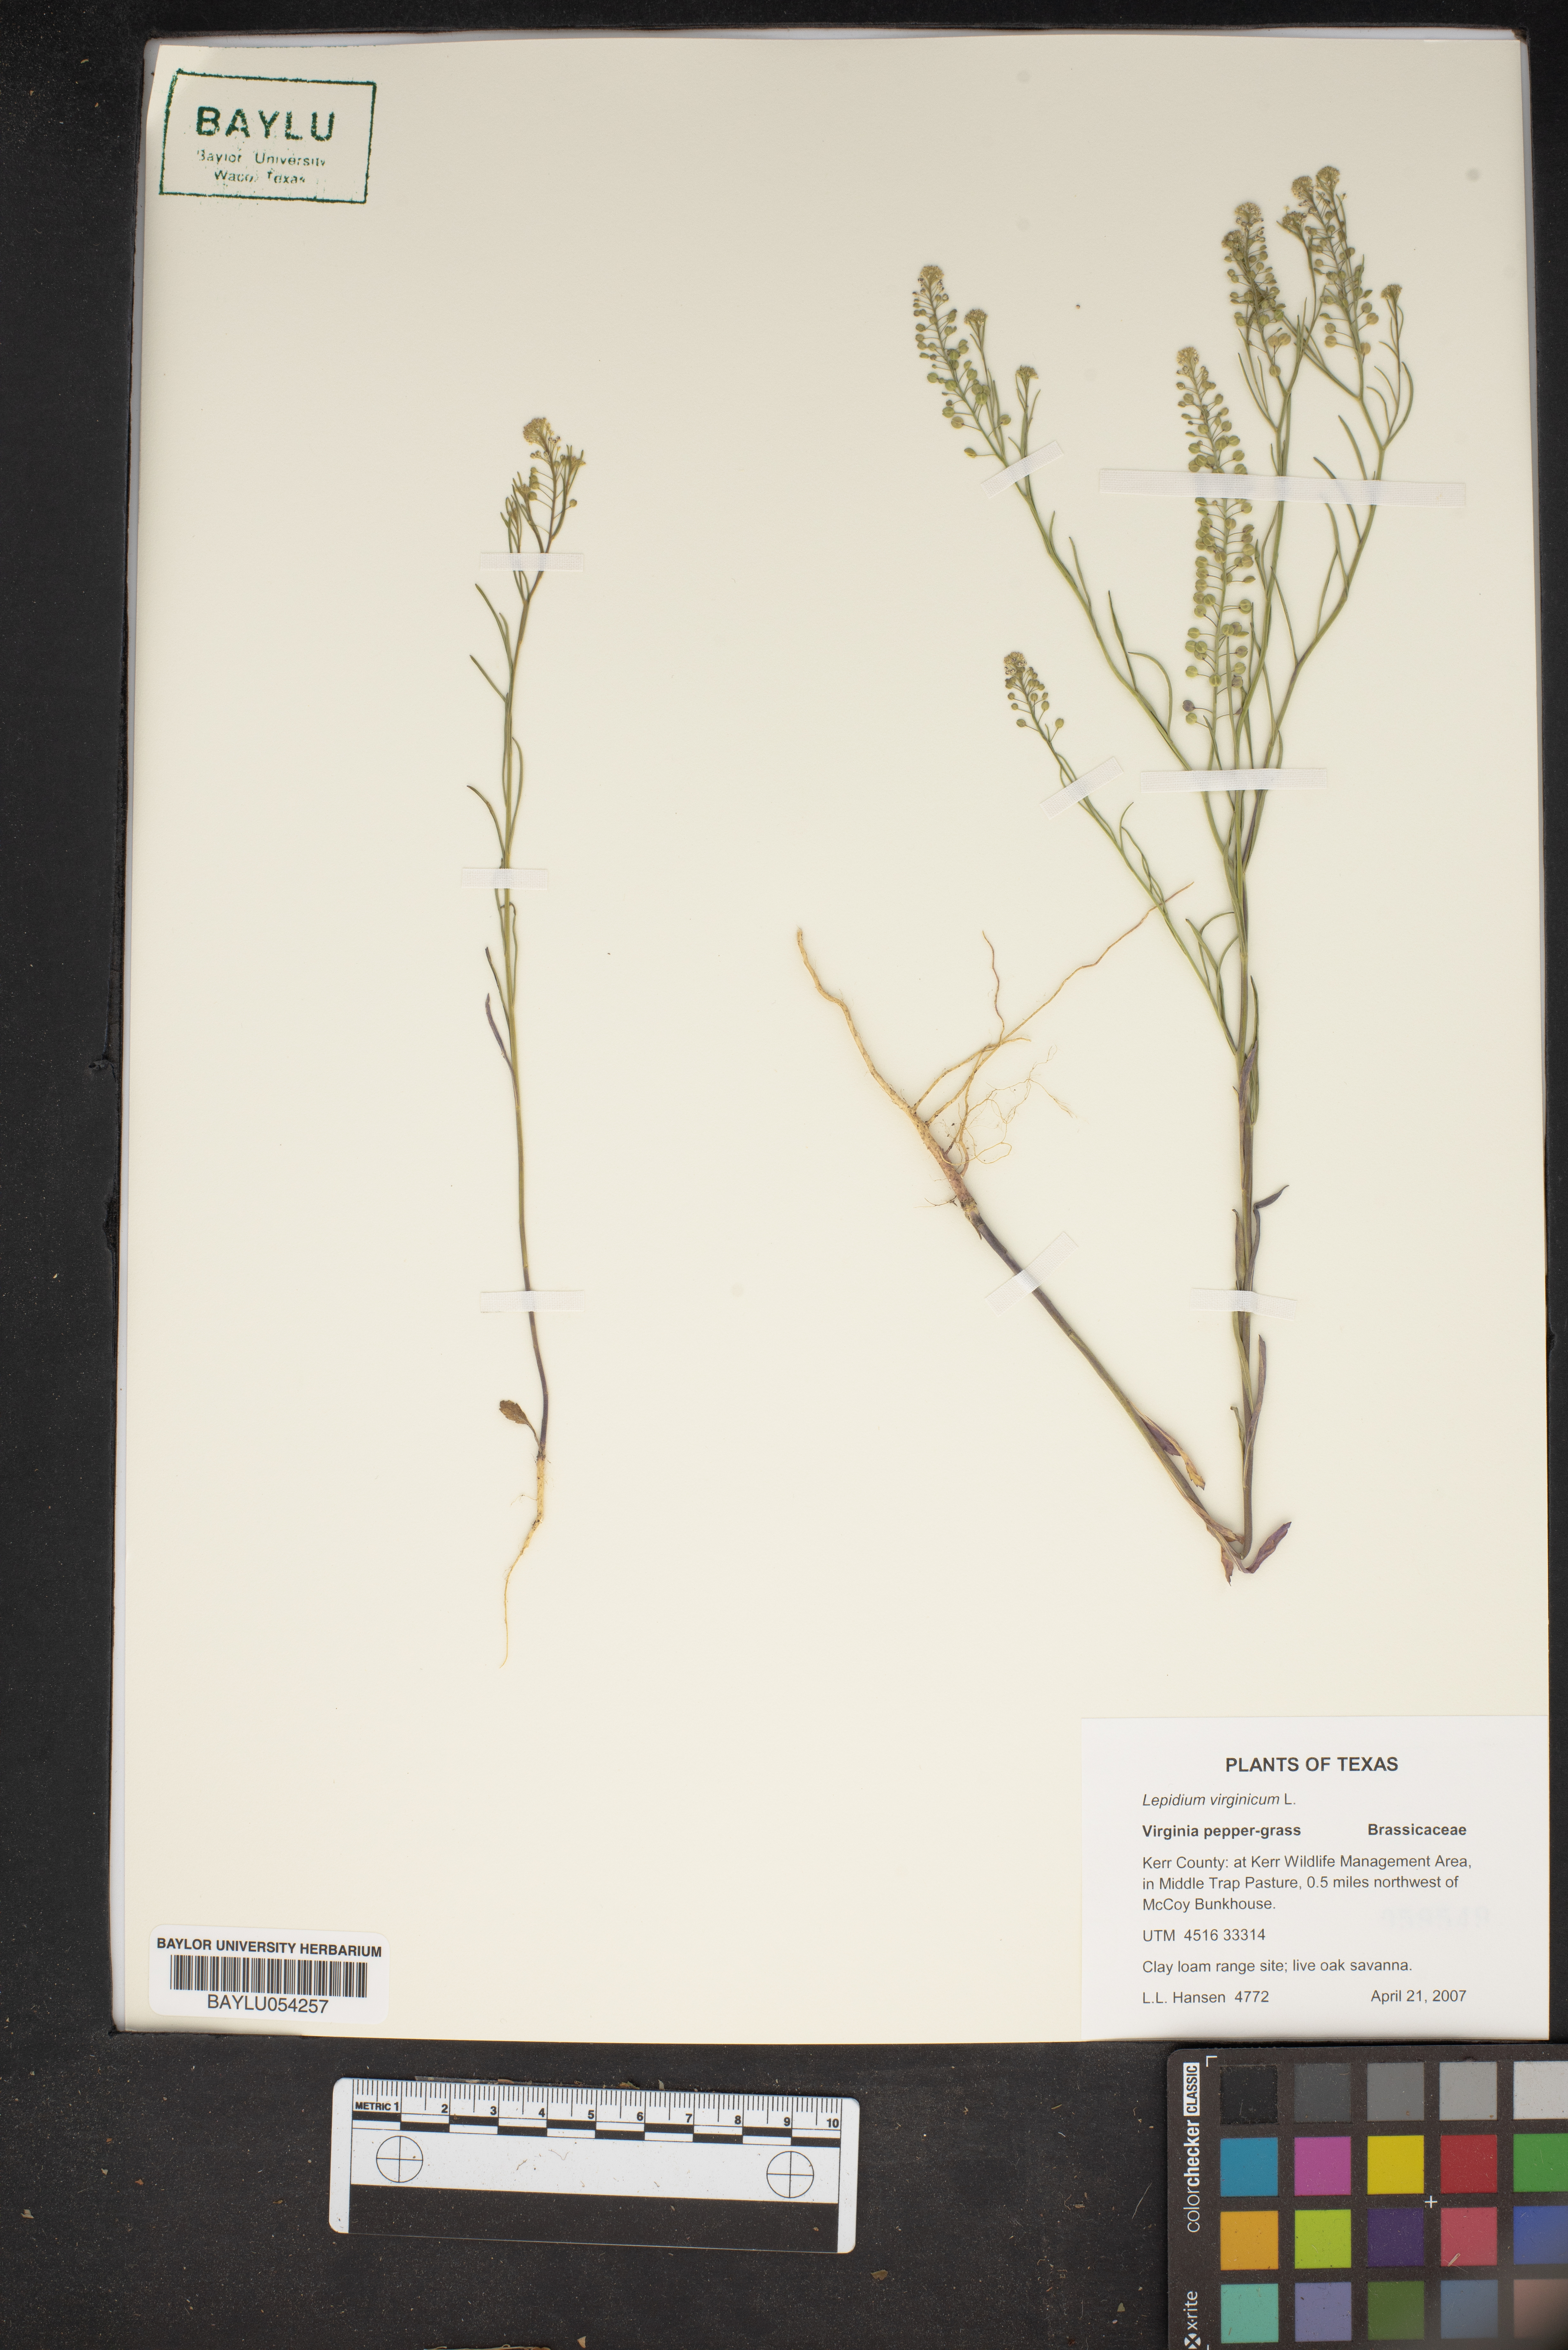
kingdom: Plantae
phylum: Tracheophyta
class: Magnoliopsida
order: Brassicales
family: Brassicaceae
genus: Lepidium
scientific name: Lepidium virginicum
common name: Least pepperwort
